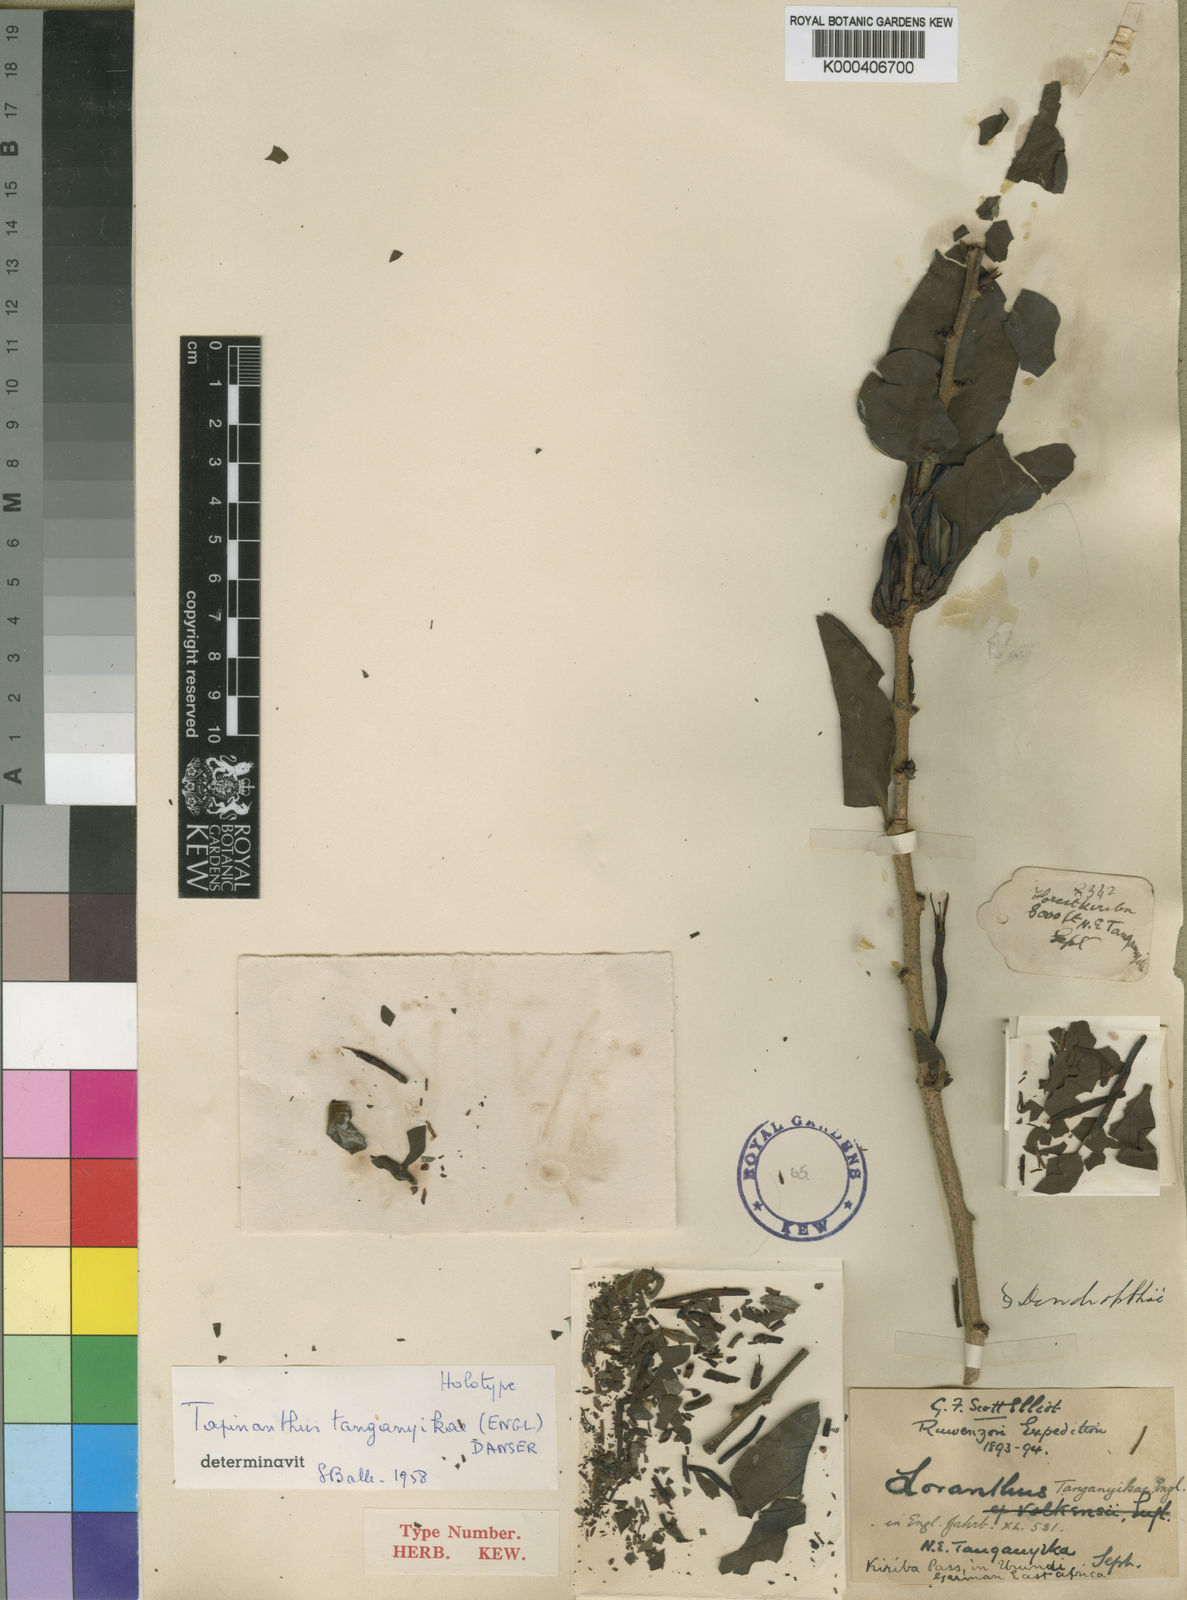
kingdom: Plantae
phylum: Tracheophyta
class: Magnoliopsida
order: Santalales
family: Loranthaceae
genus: Agelanthus
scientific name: Agelanthus tanganyikae
